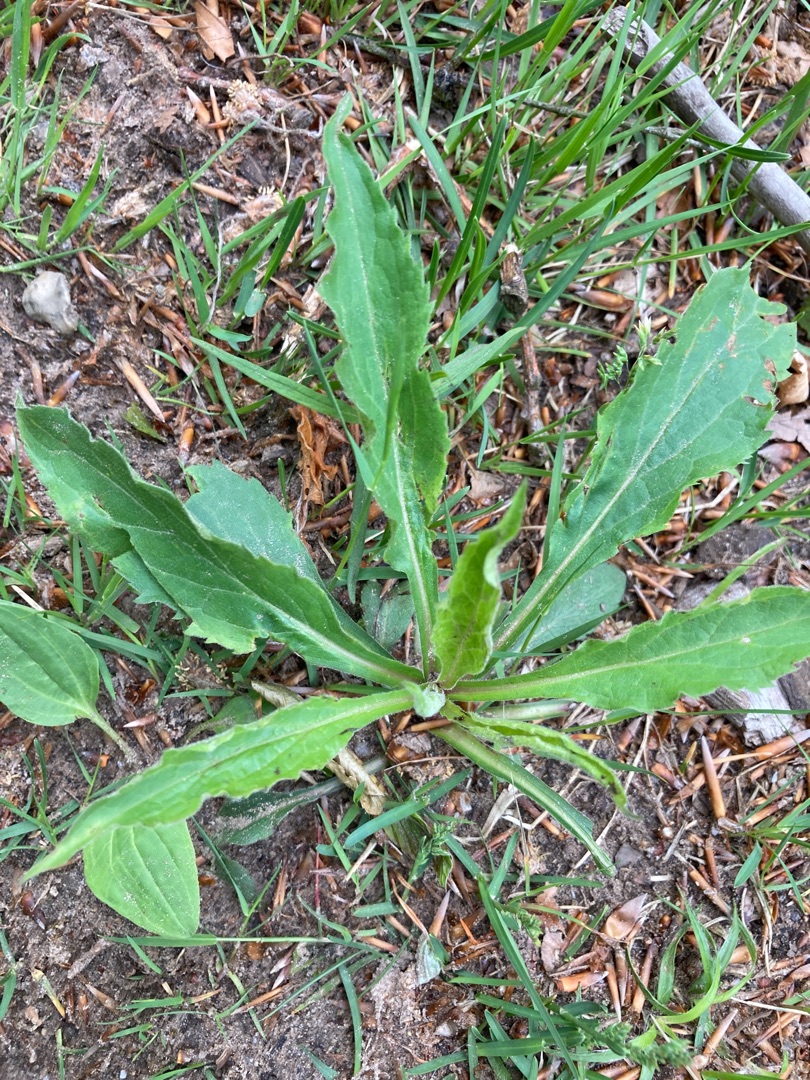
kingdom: Plantae
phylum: Tracheophyta
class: Magnoliopsida
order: Asterales
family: Asteraceae
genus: Solidago
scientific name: Solidago virgaurea
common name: Almindelig gyldenris
